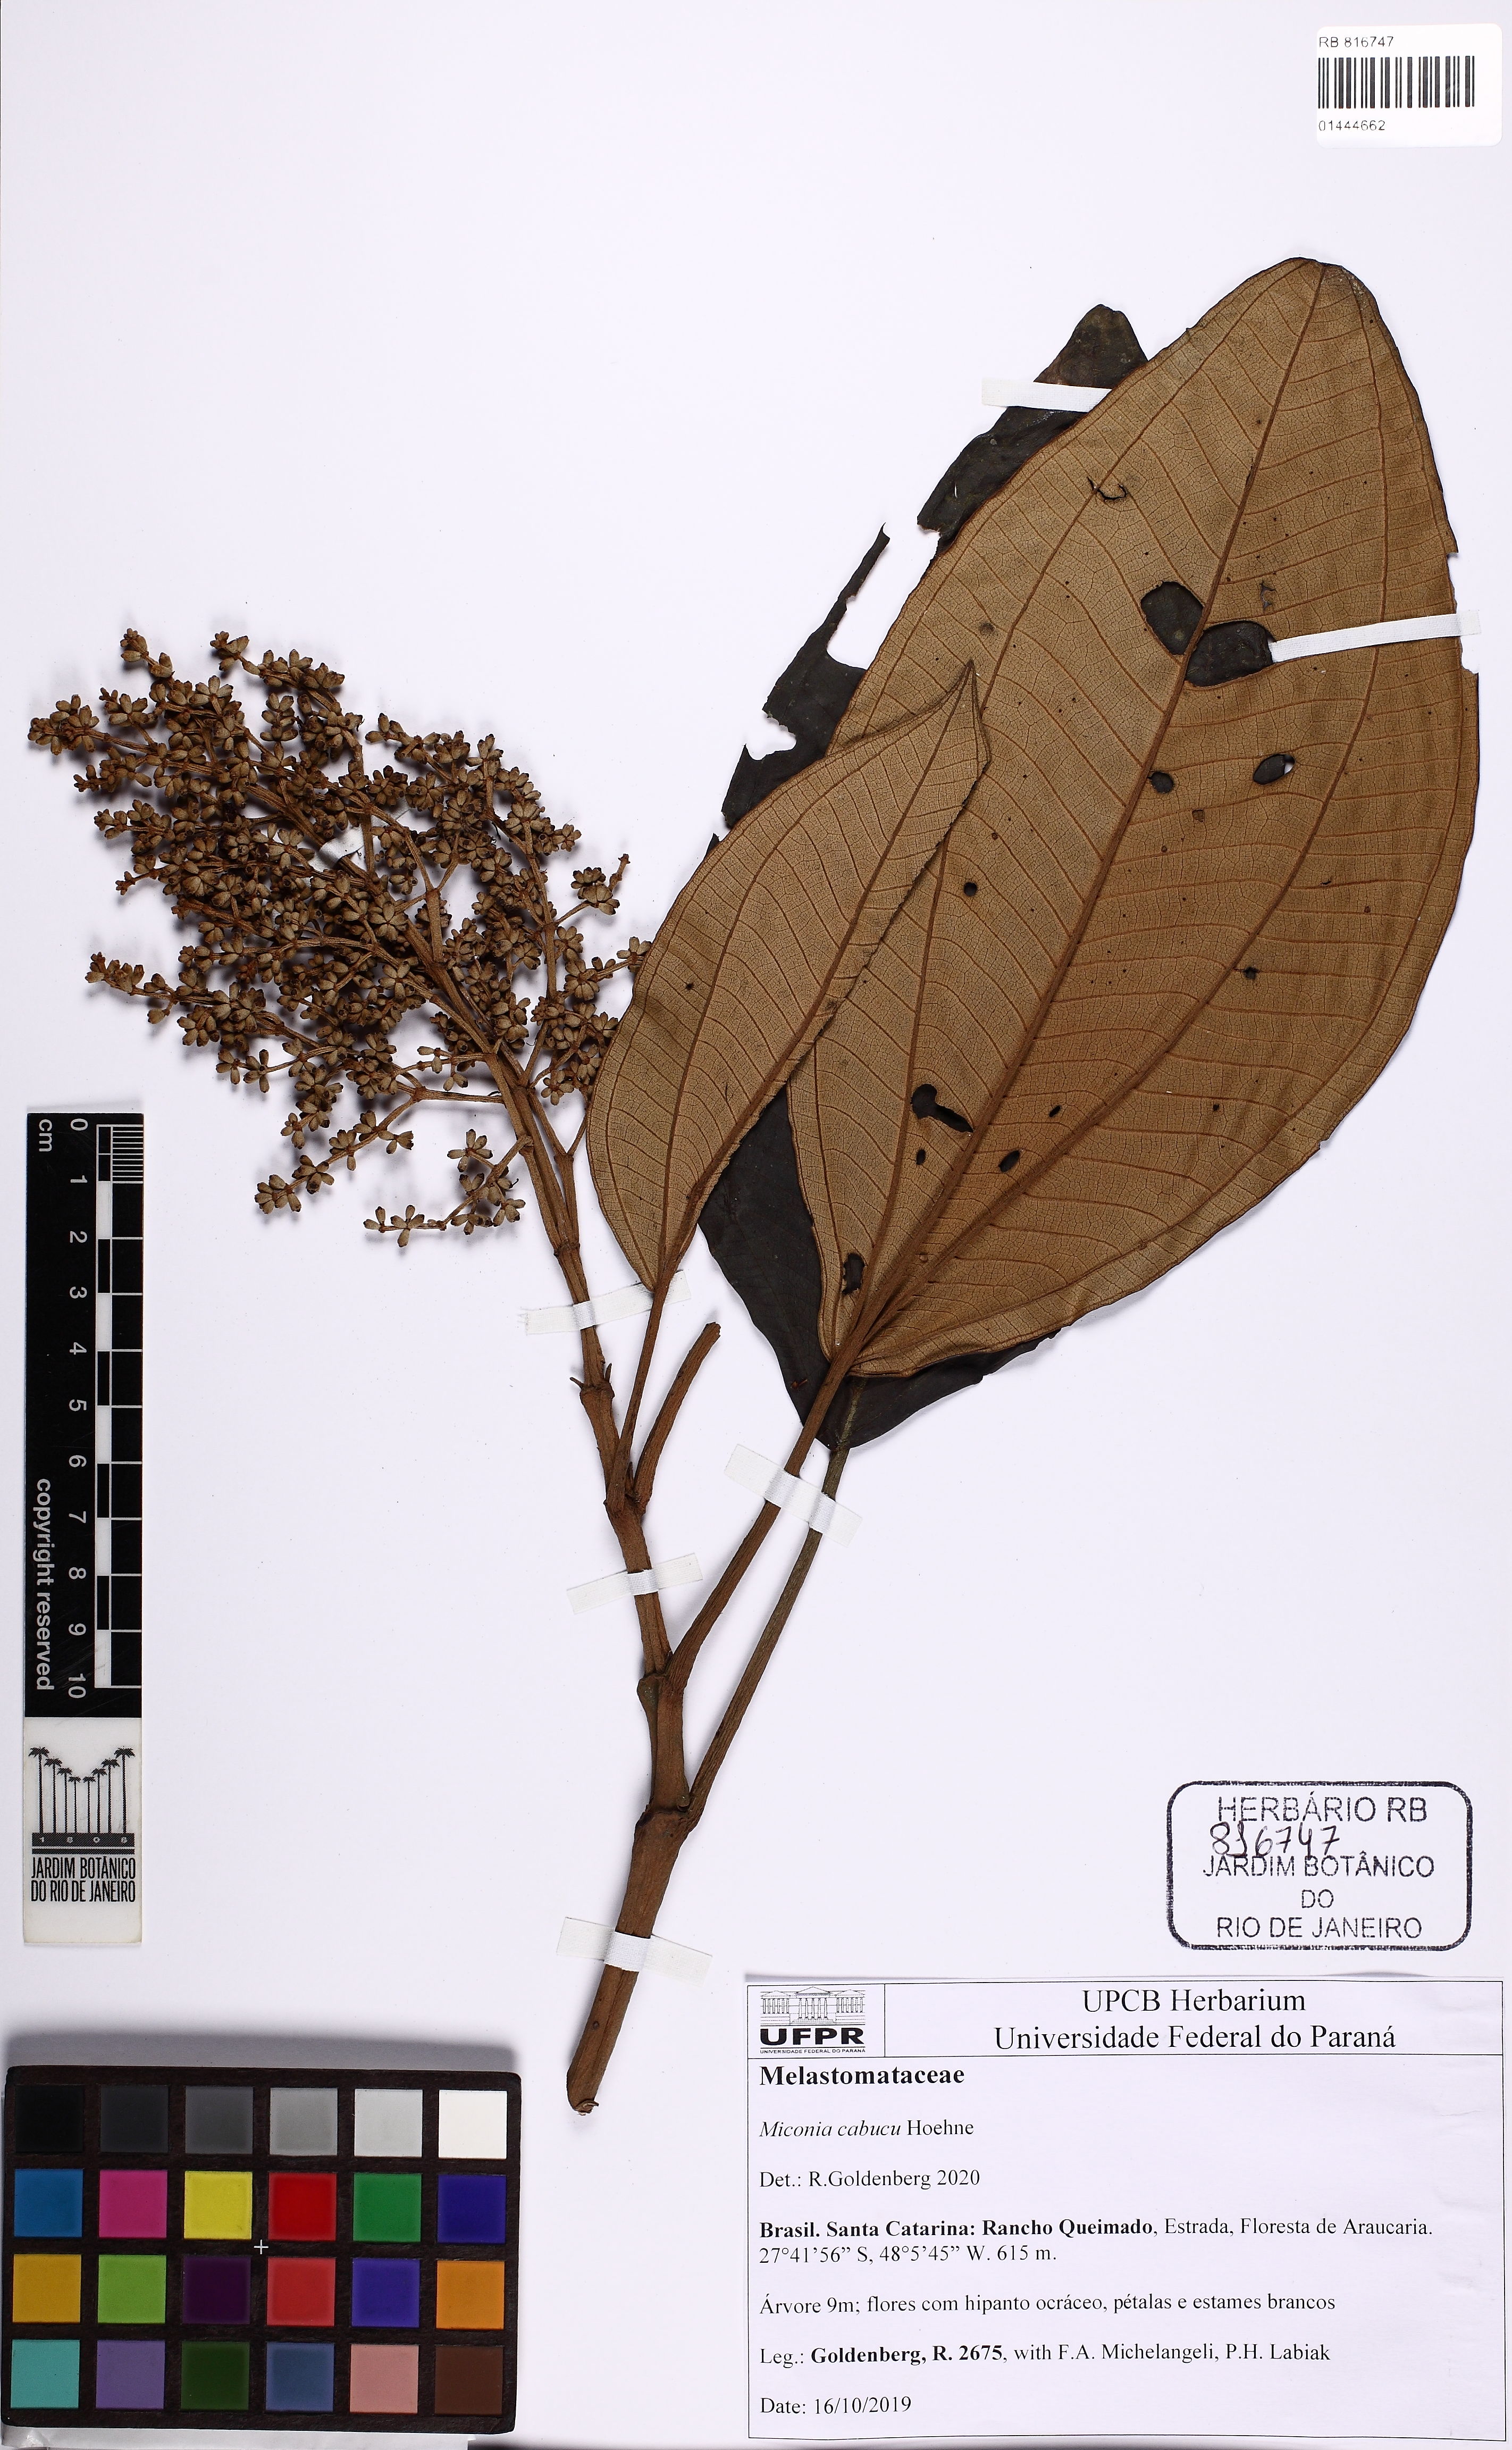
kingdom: Plantae
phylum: Tracheophyta
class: Magnoliopsida
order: Myrtales
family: Melastomataceae
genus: Miconia
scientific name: Miconia cabucu
